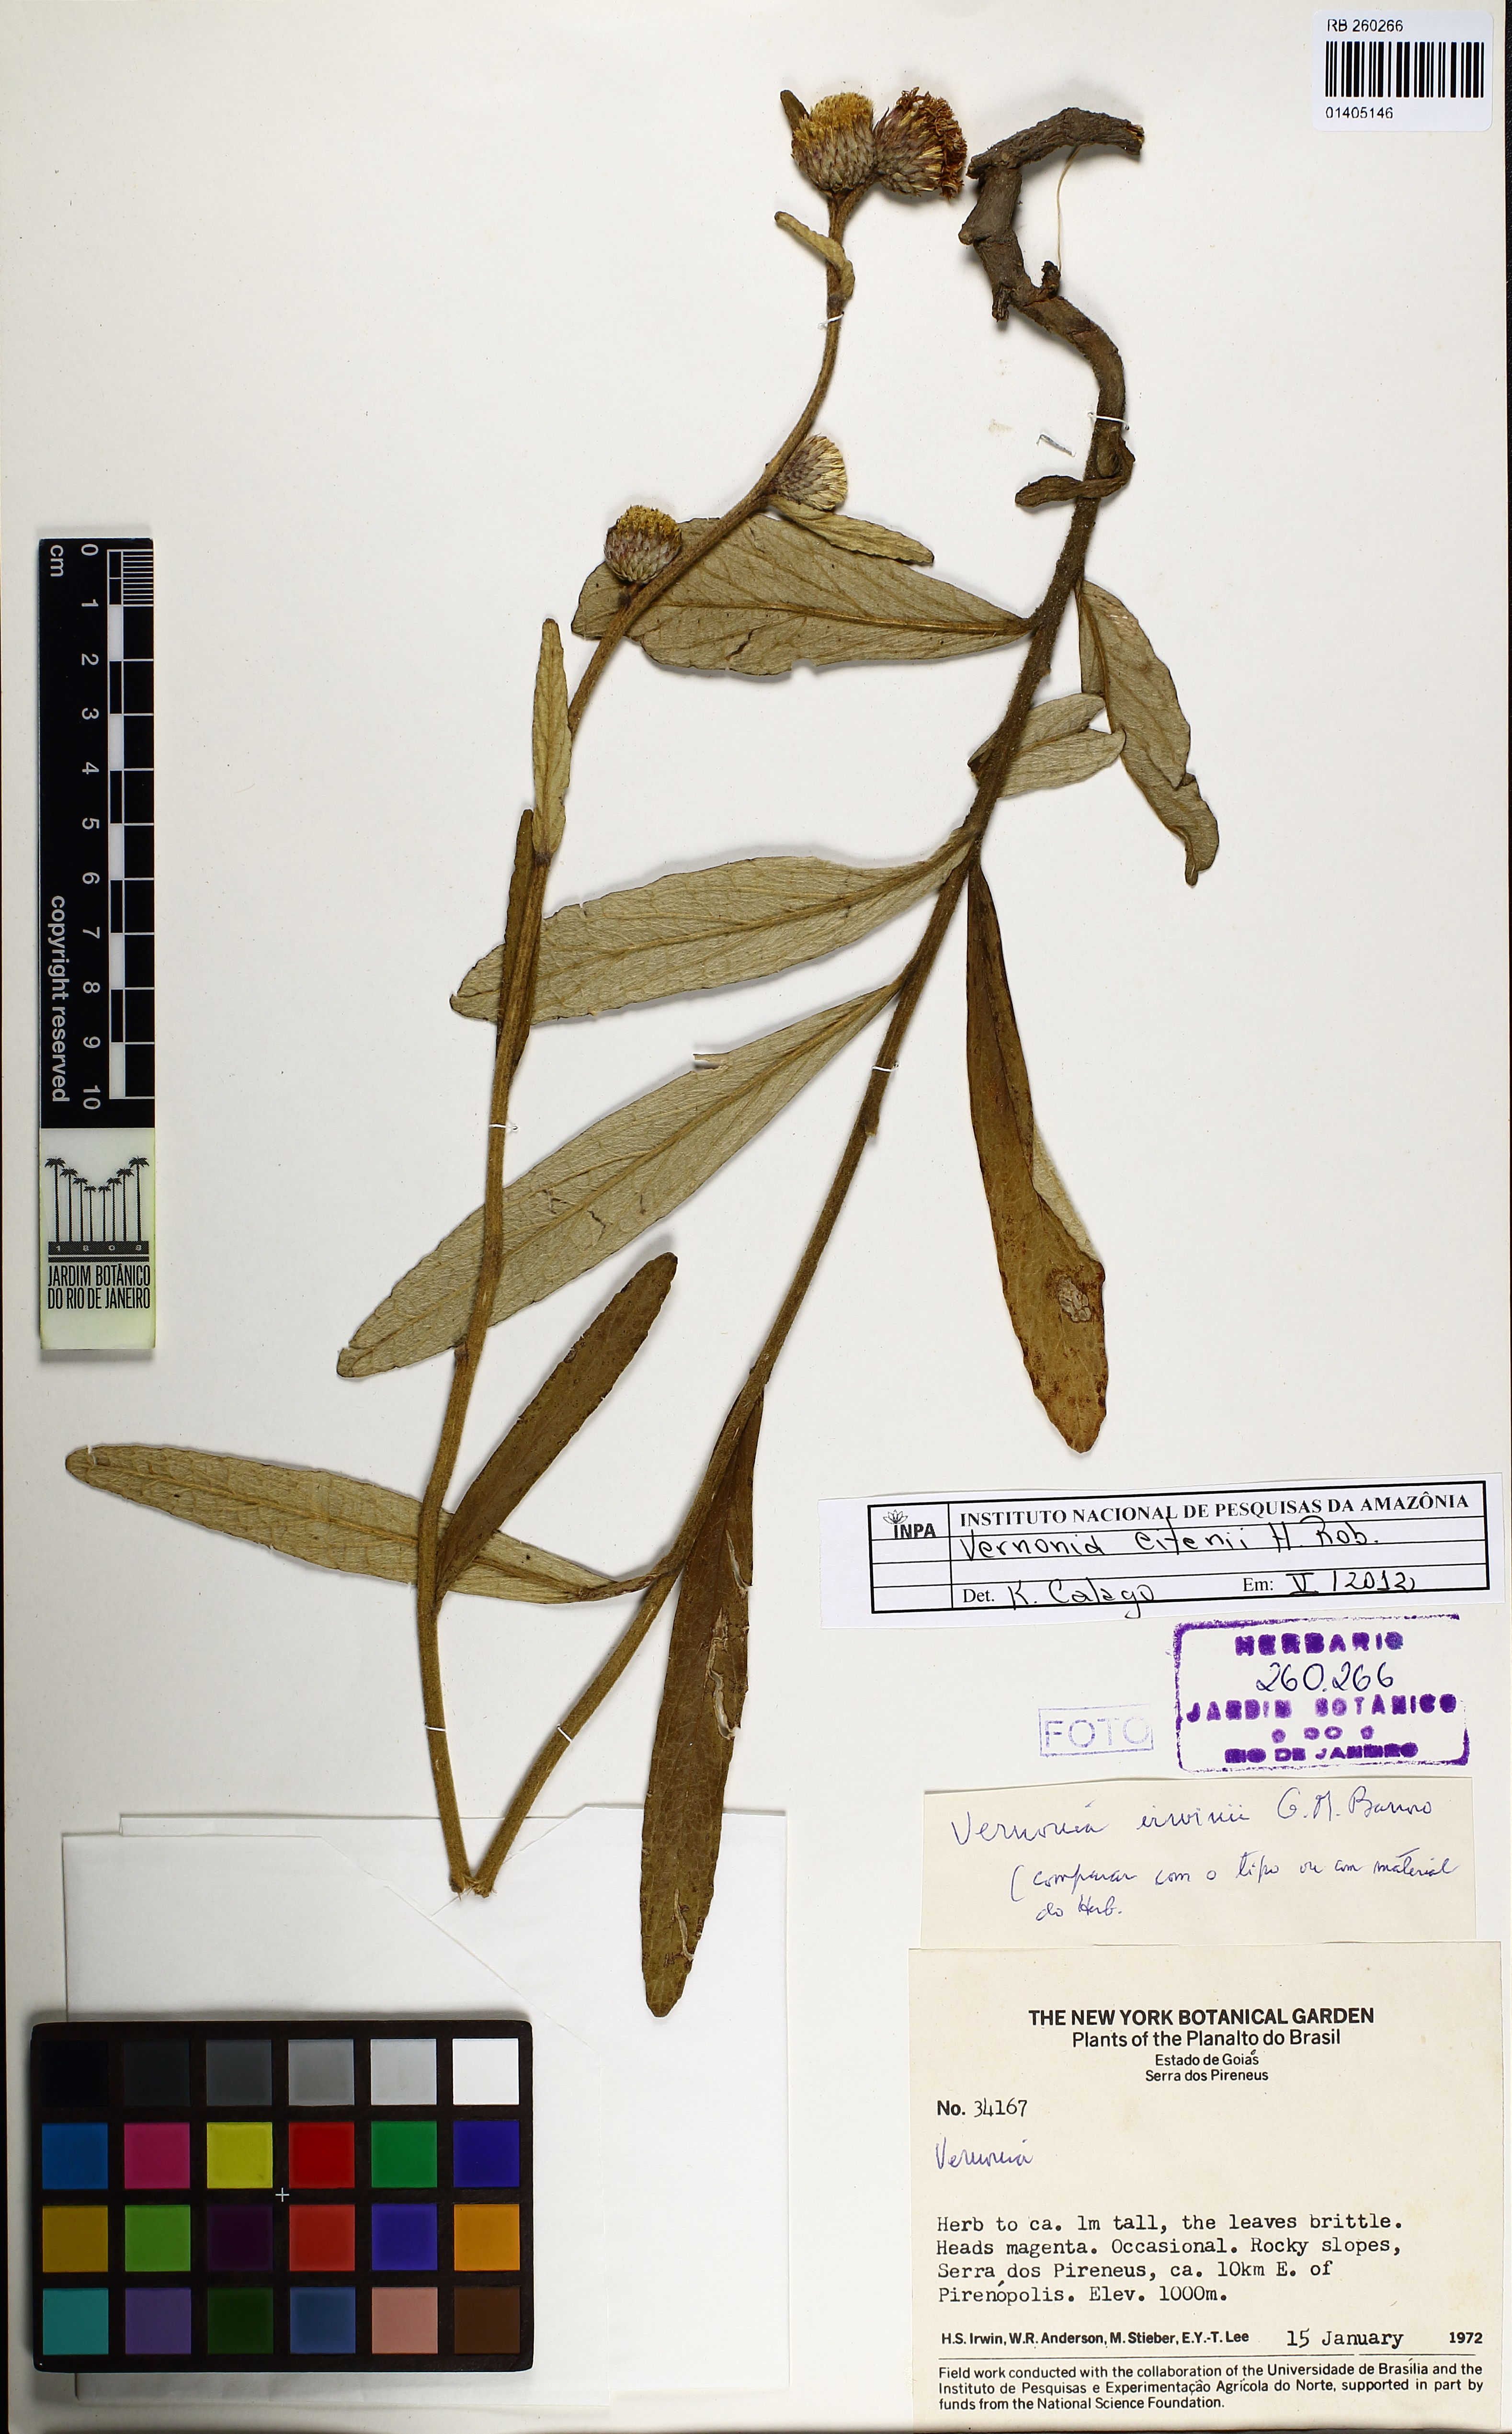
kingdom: Plantae
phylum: Tracheophyta
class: Magnoliopsida
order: Asterales
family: Asteraceae
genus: Lessingianthus
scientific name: Lessingianthus eitenii
